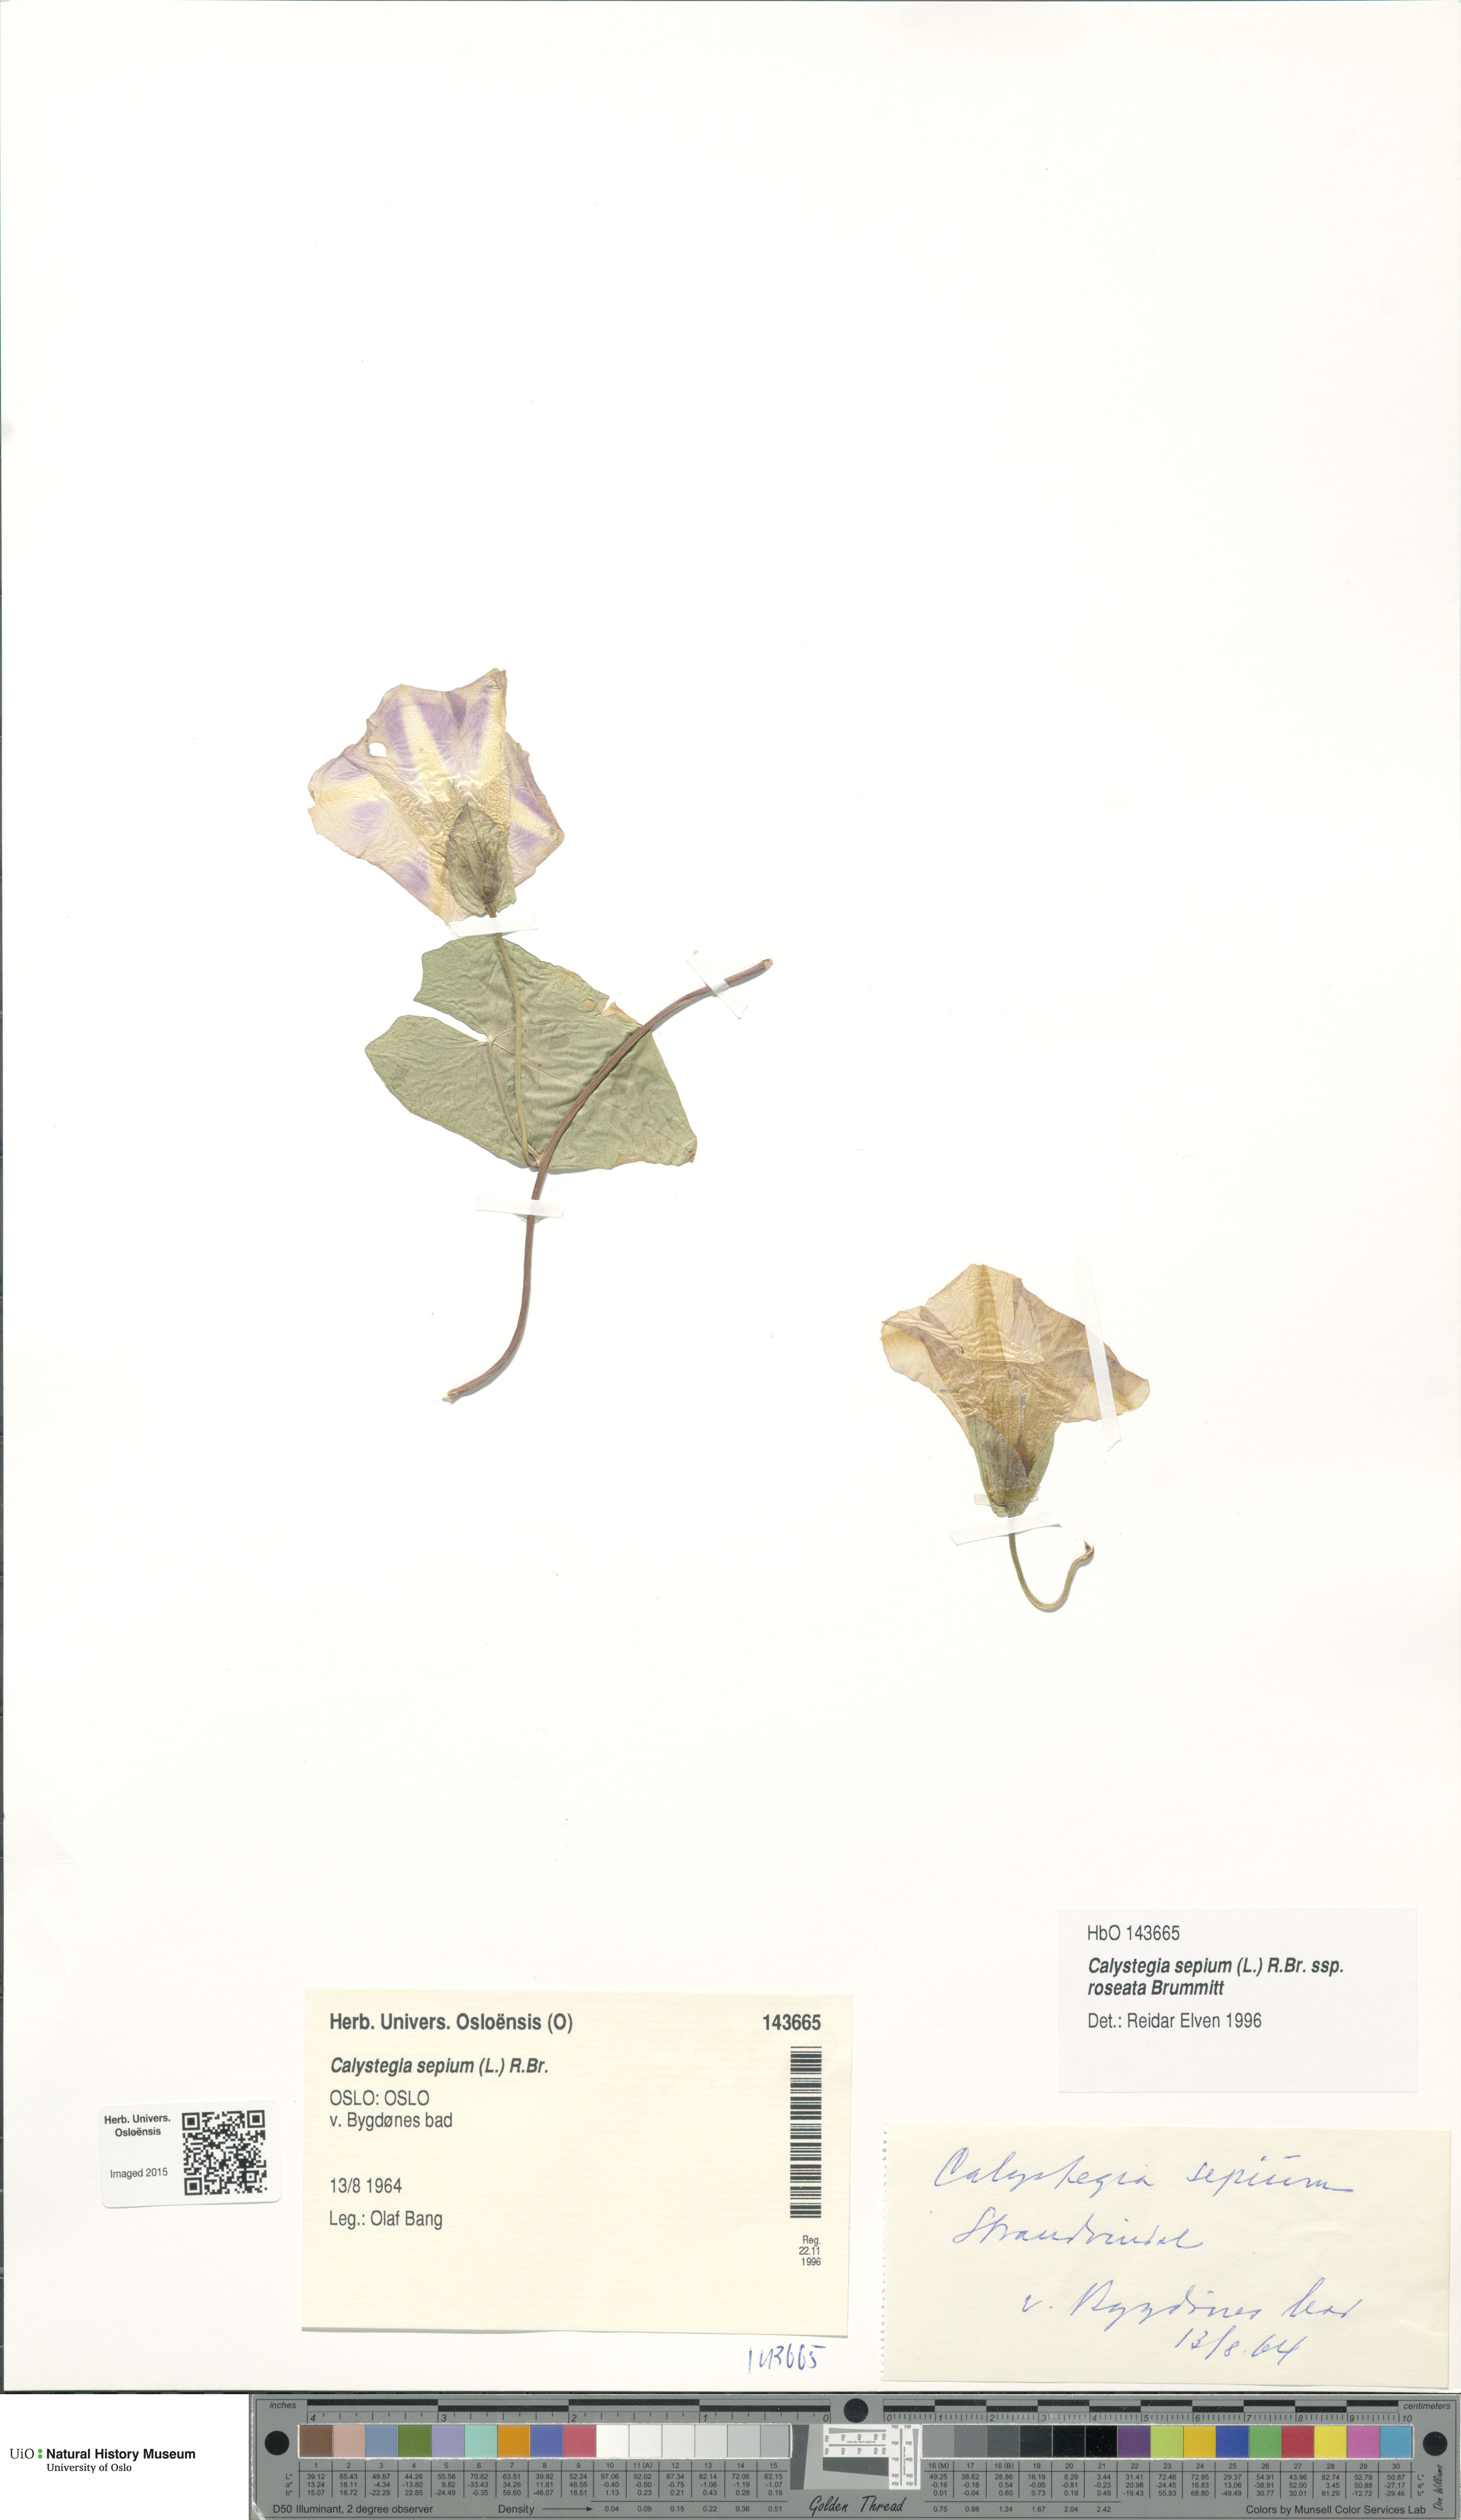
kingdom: Plantae
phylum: Tracheophyta
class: Magnoliopsida
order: Solanales
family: Convolvulaceae
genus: Calystegia
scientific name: Calystegia pulchra
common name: Hairy bindweed
